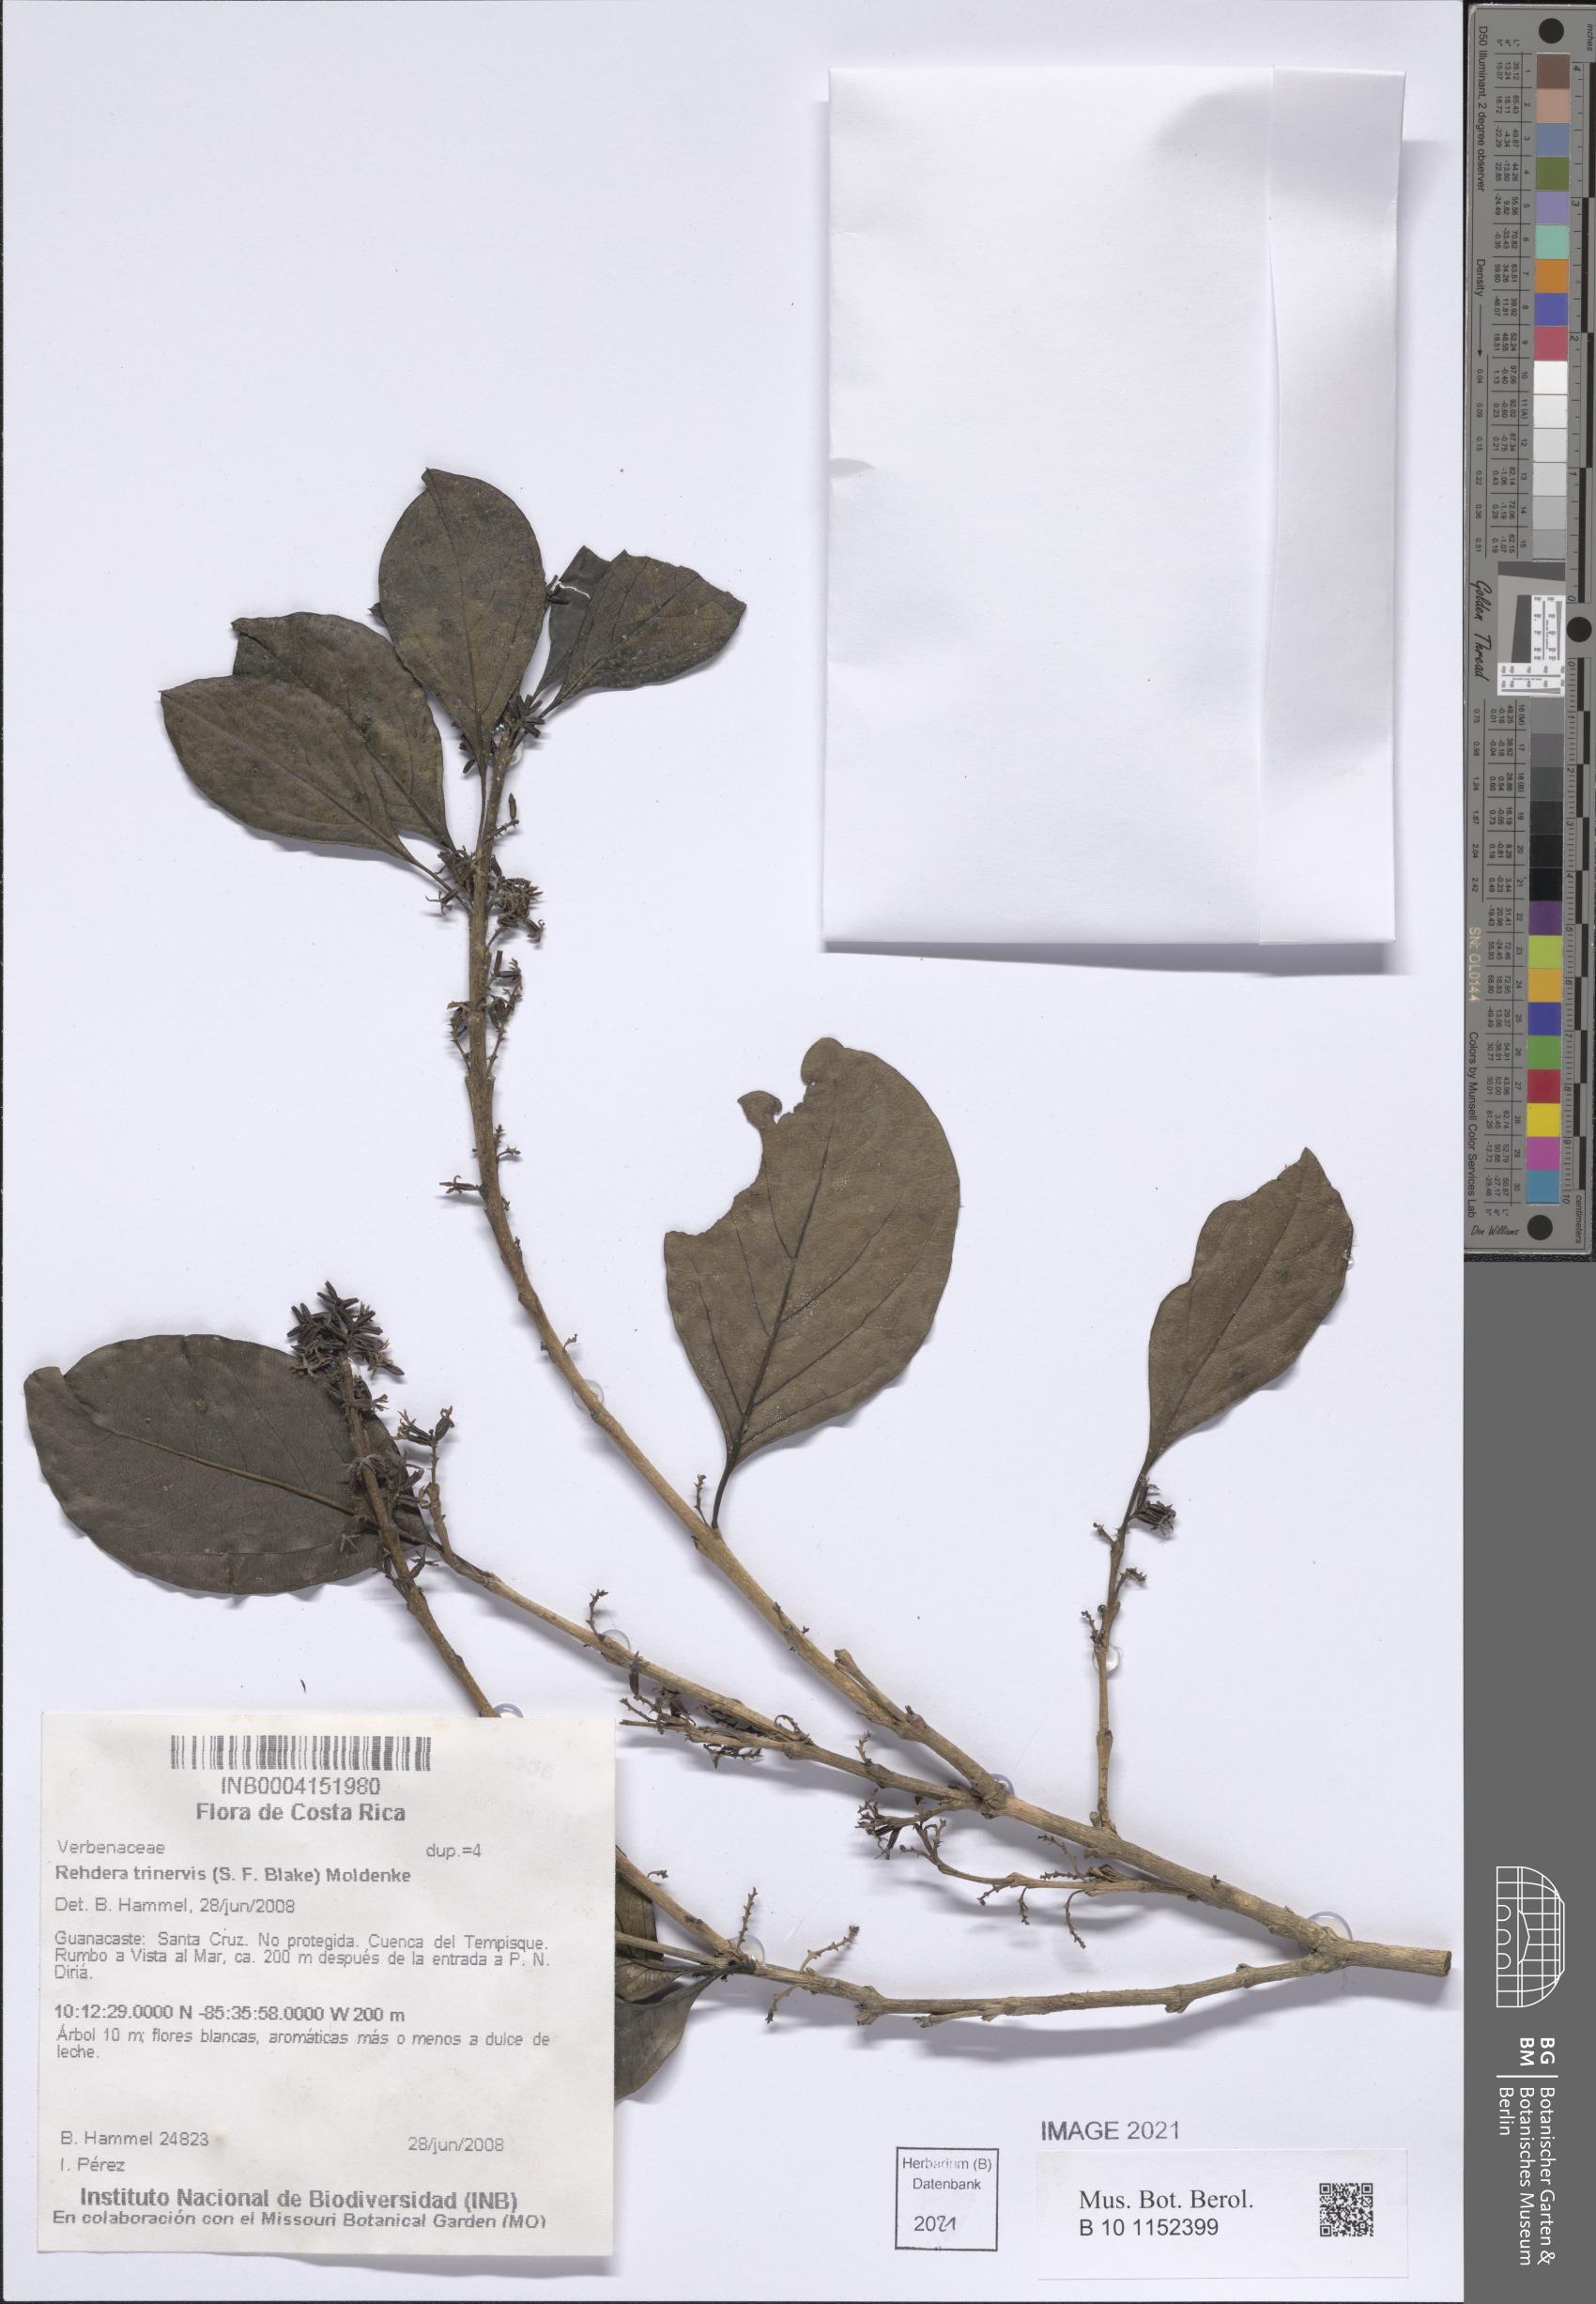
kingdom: Plantae
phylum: Tracheophyta
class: Magnoliopsida
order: Lamiales
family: Verbenaceae
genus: Rehdera
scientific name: Rehdera trinervis
